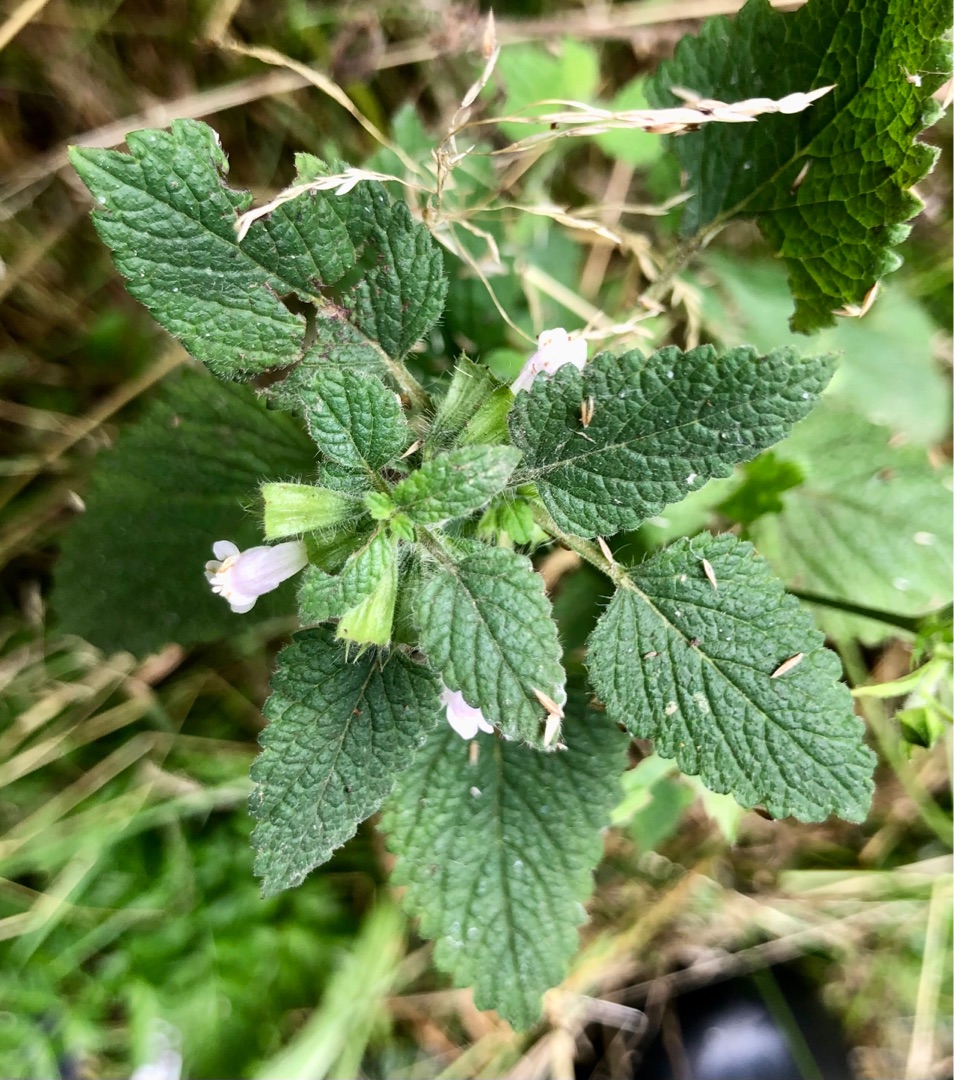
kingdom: Plantae
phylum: Tracheophyta
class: Magnoliopsida
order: Lamiales
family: Lamiaceae
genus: Melissa
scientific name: Melissa officinalis
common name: Citronmelisse
